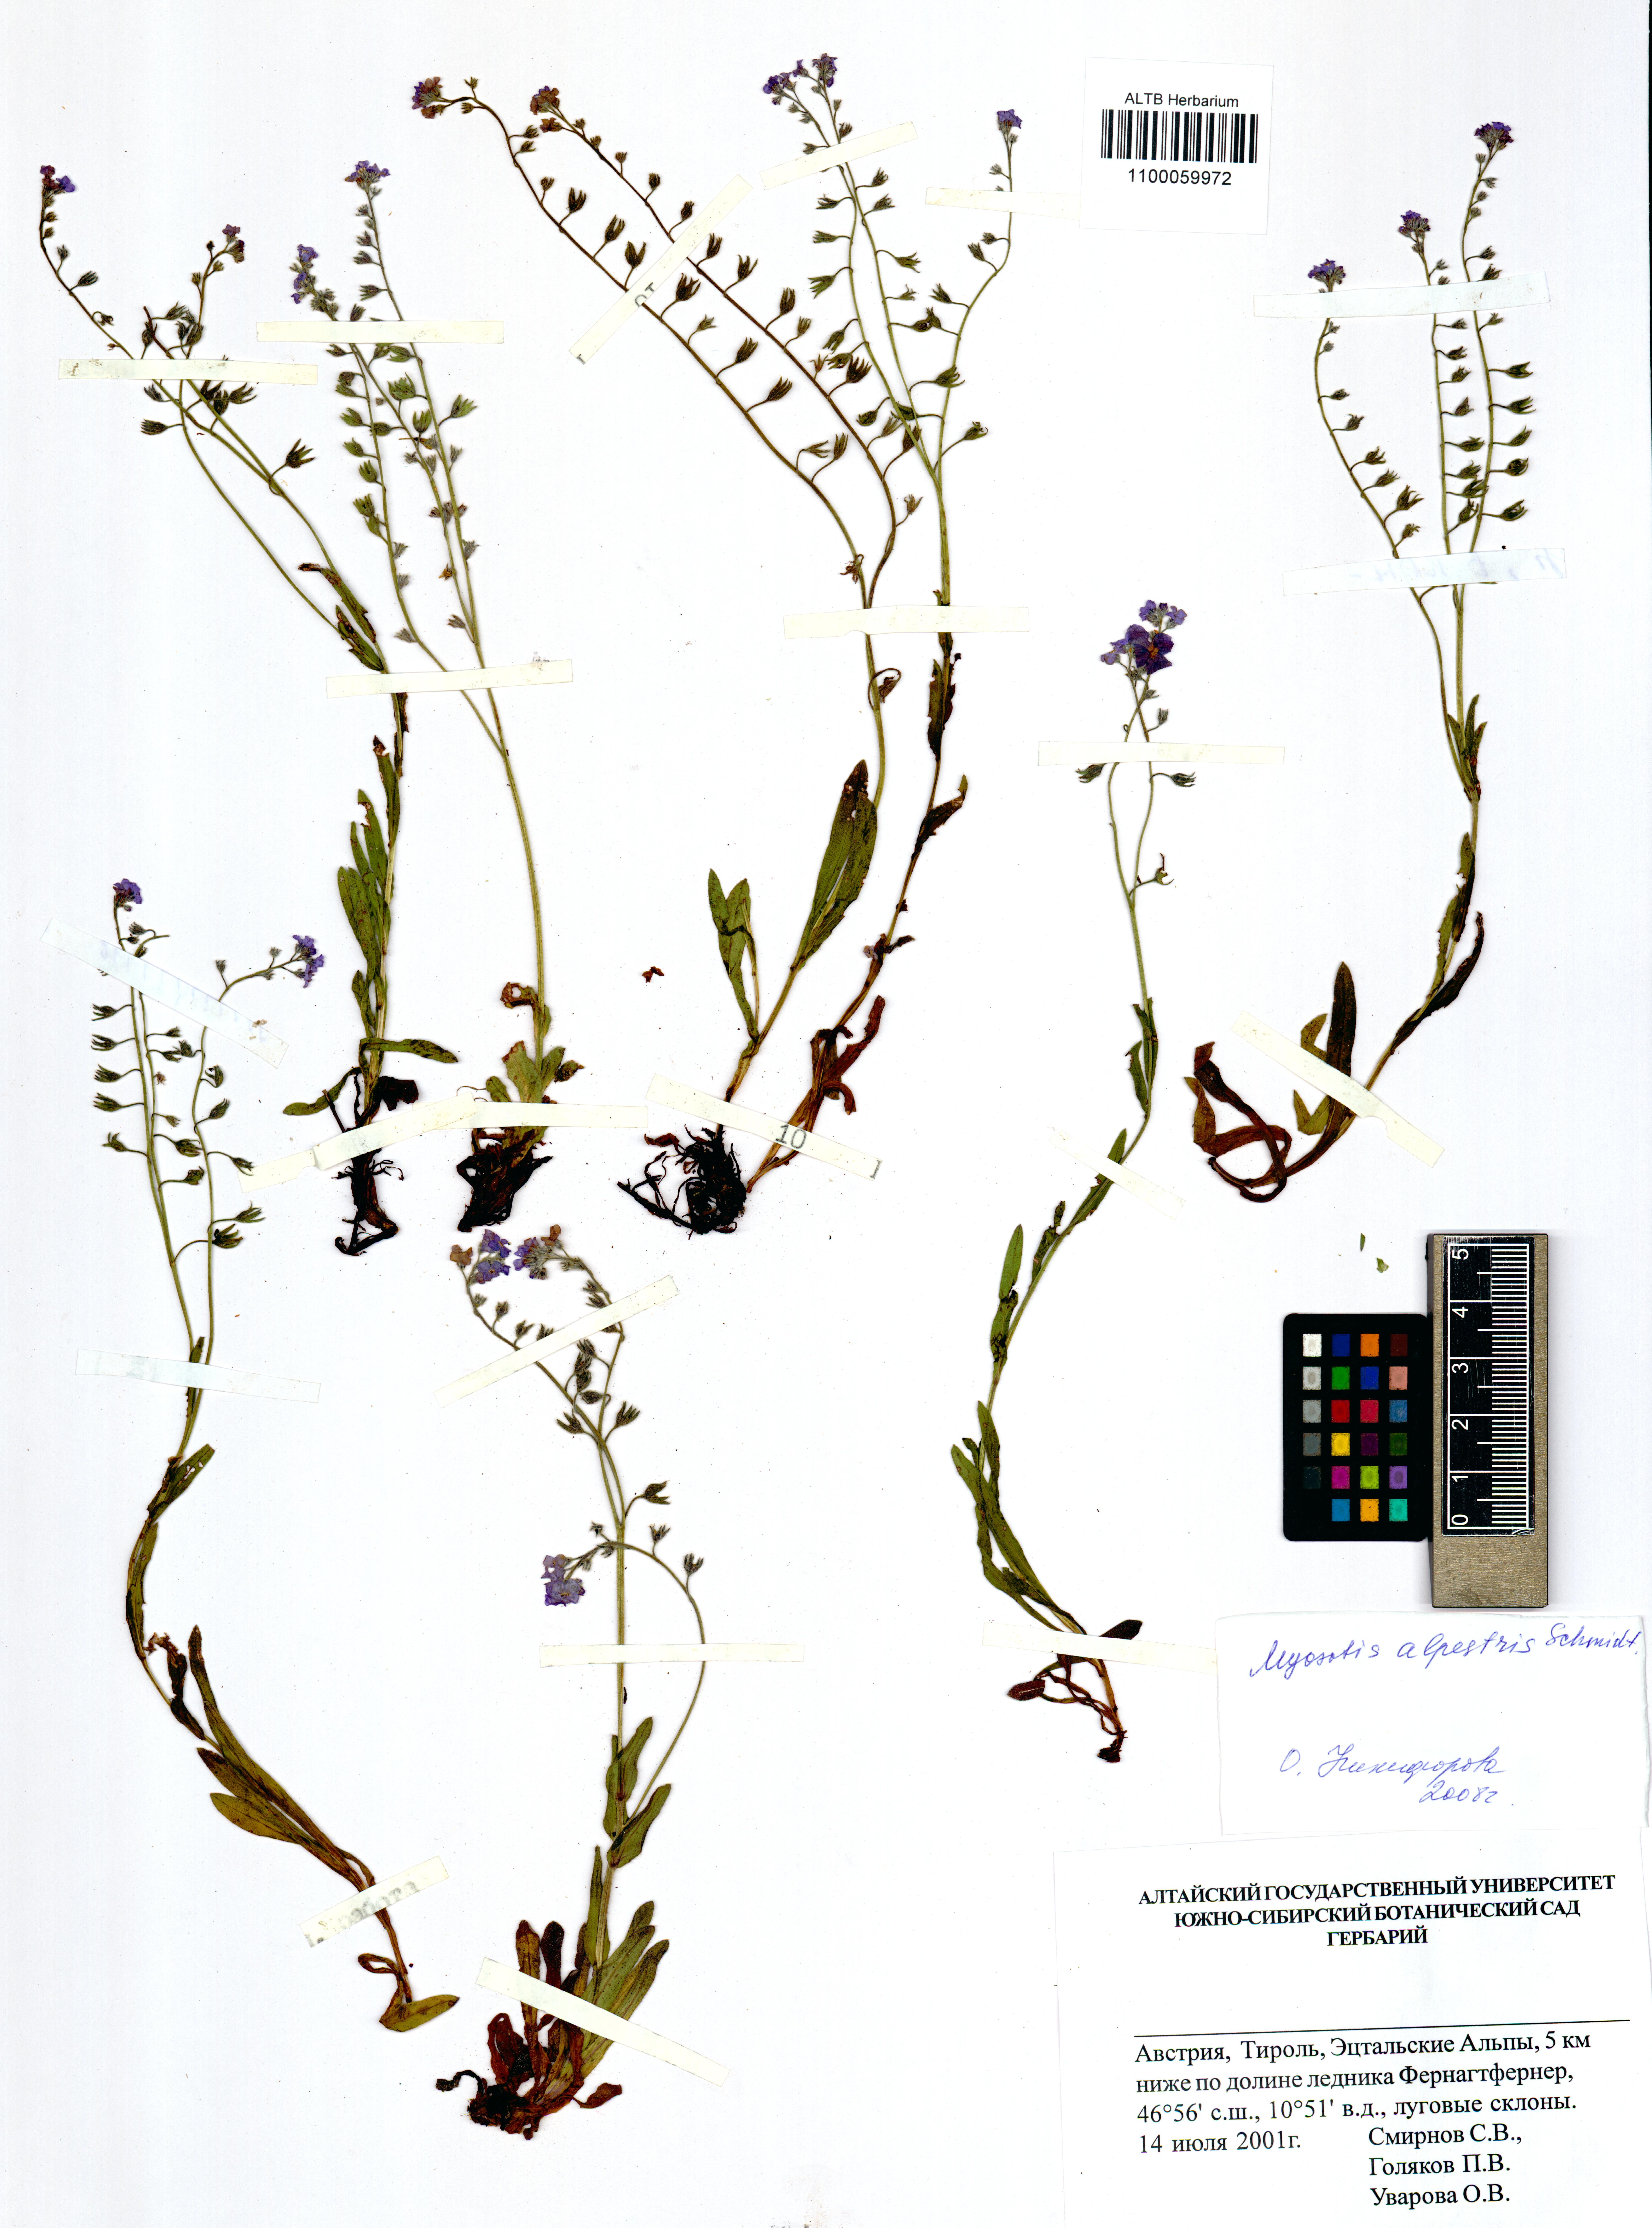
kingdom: Plantae
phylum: Tracheophyta
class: Magnoliopsida
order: Boraginales
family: Boraginaceae
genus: Myosotis
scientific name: Myosotis alpestris
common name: Alpine forget-me-not
